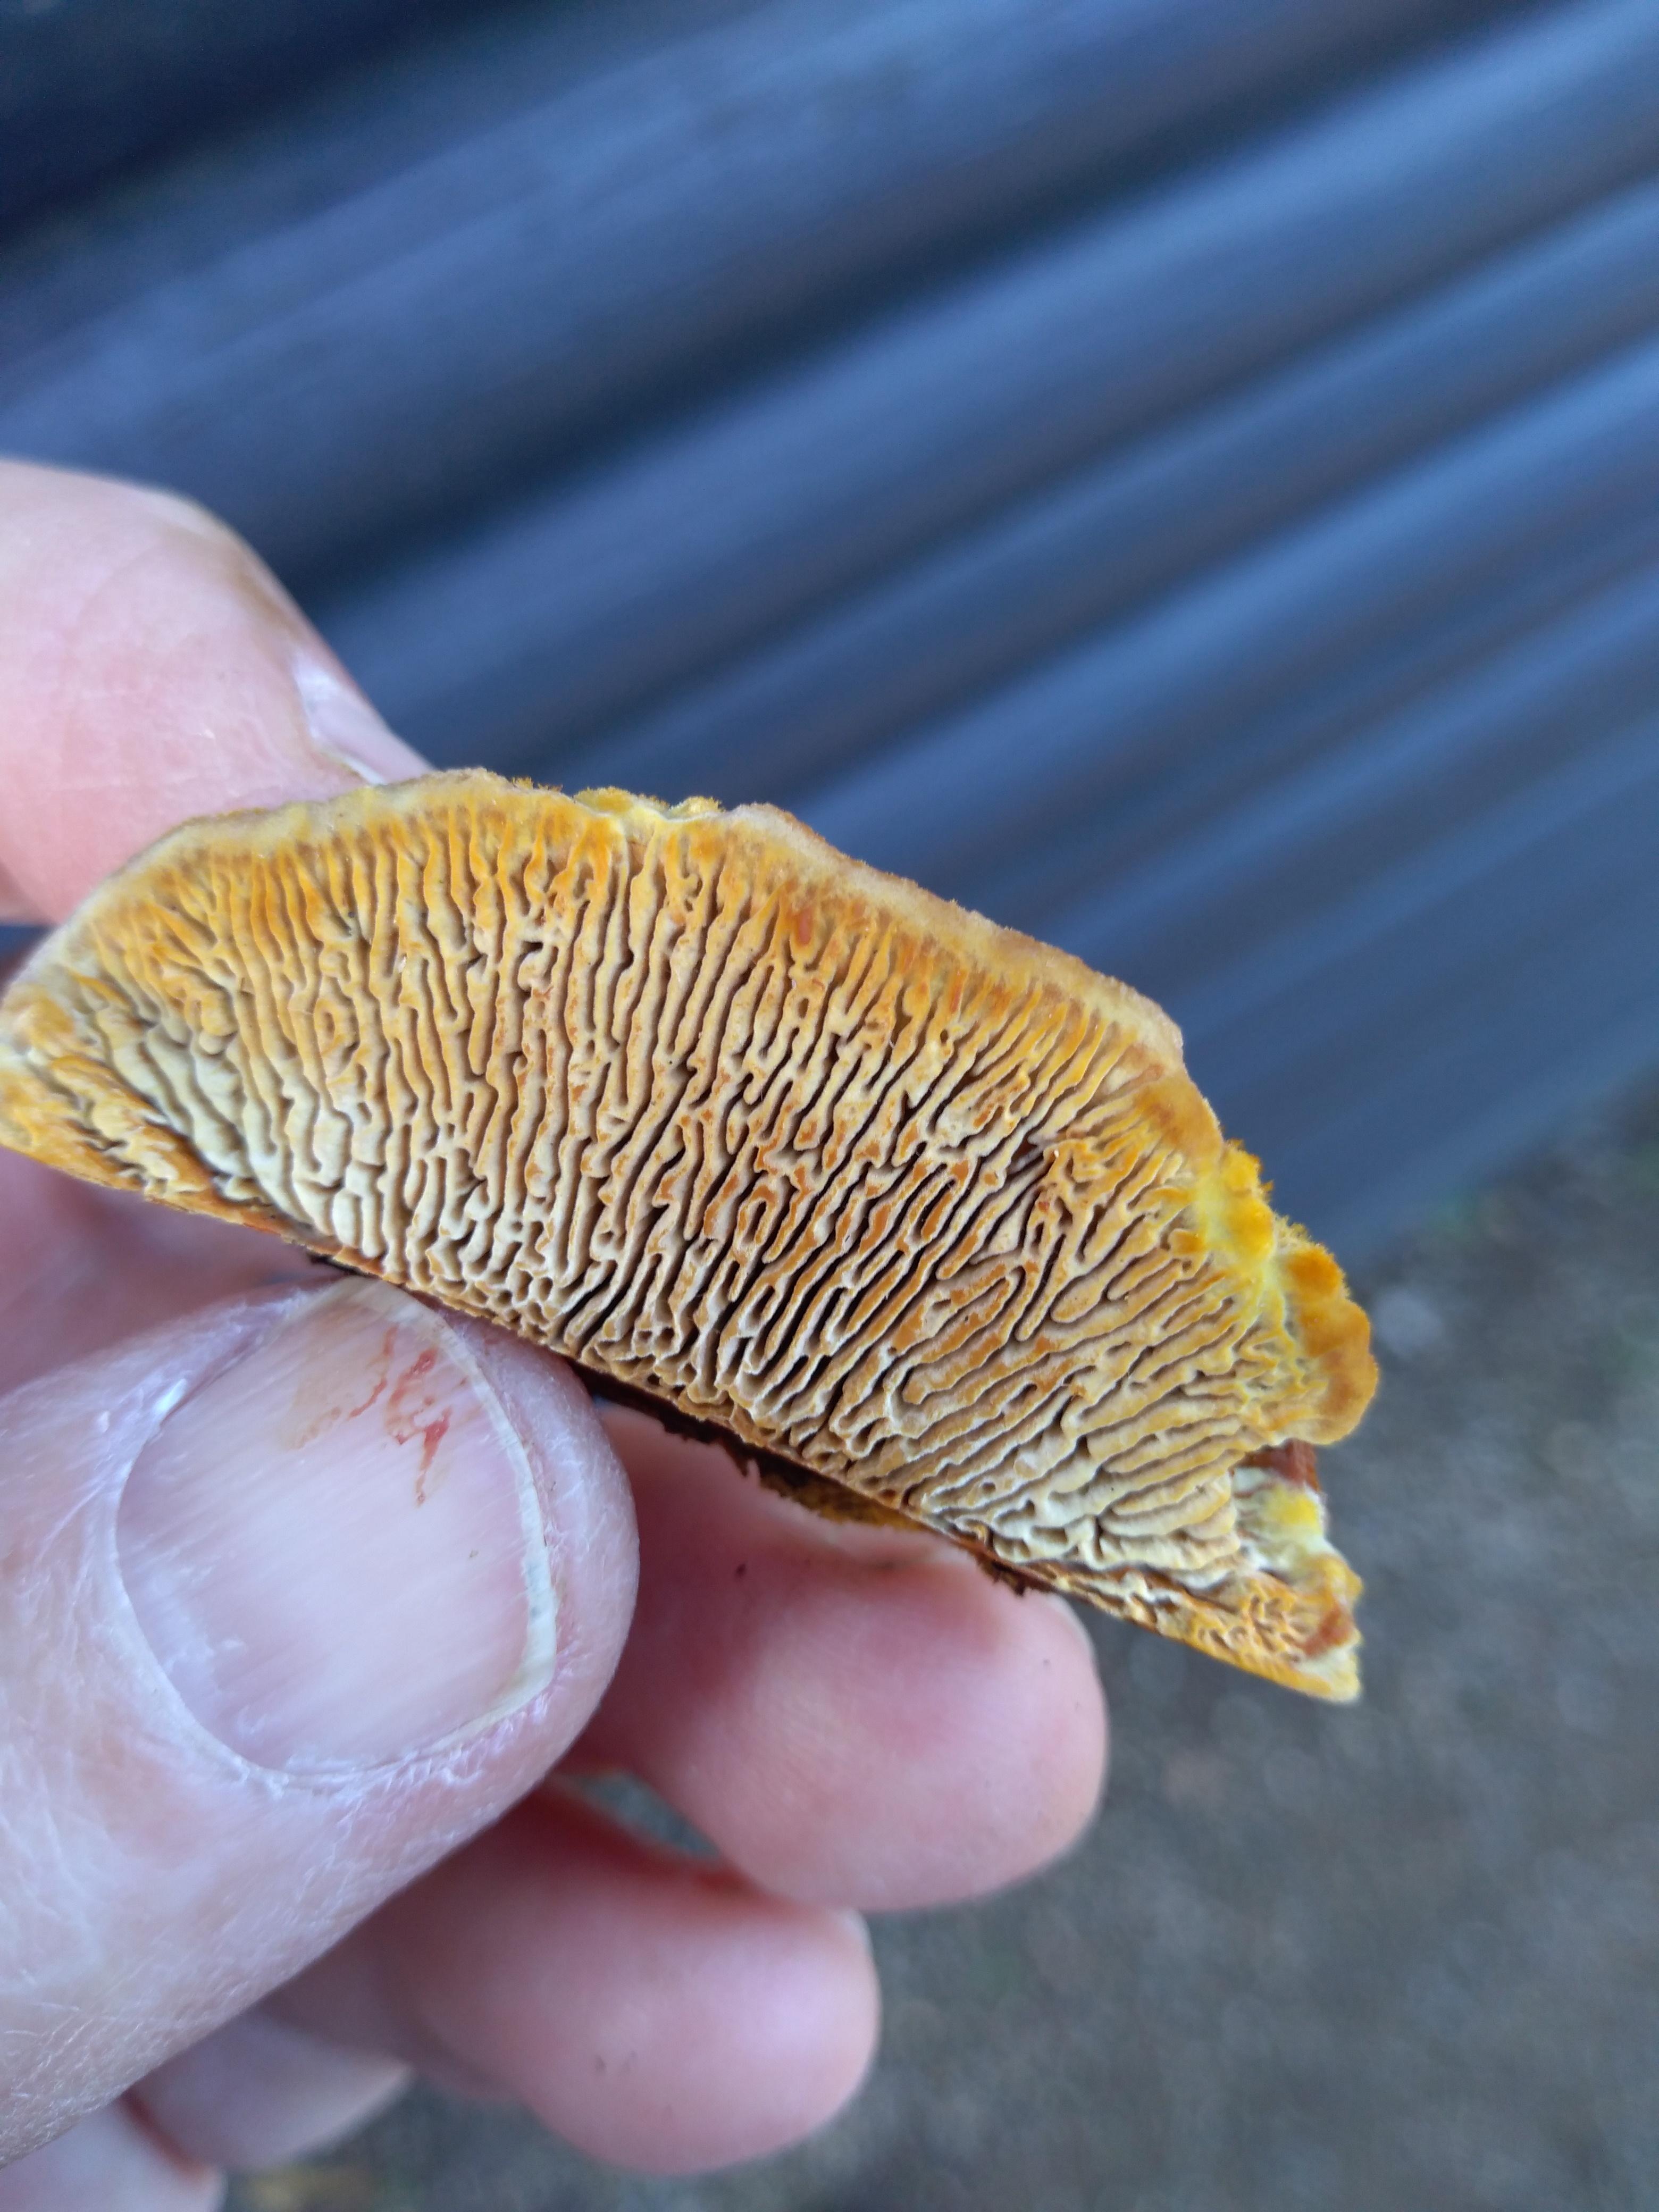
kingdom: Fungi
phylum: Basidiomycota
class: Agaricomycetes
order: Gloeophyllales
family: Gloeophyllaceae
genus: Gloeophyllum
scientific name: Gloeophyllum sepiarium
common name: fyrre-korkhat
